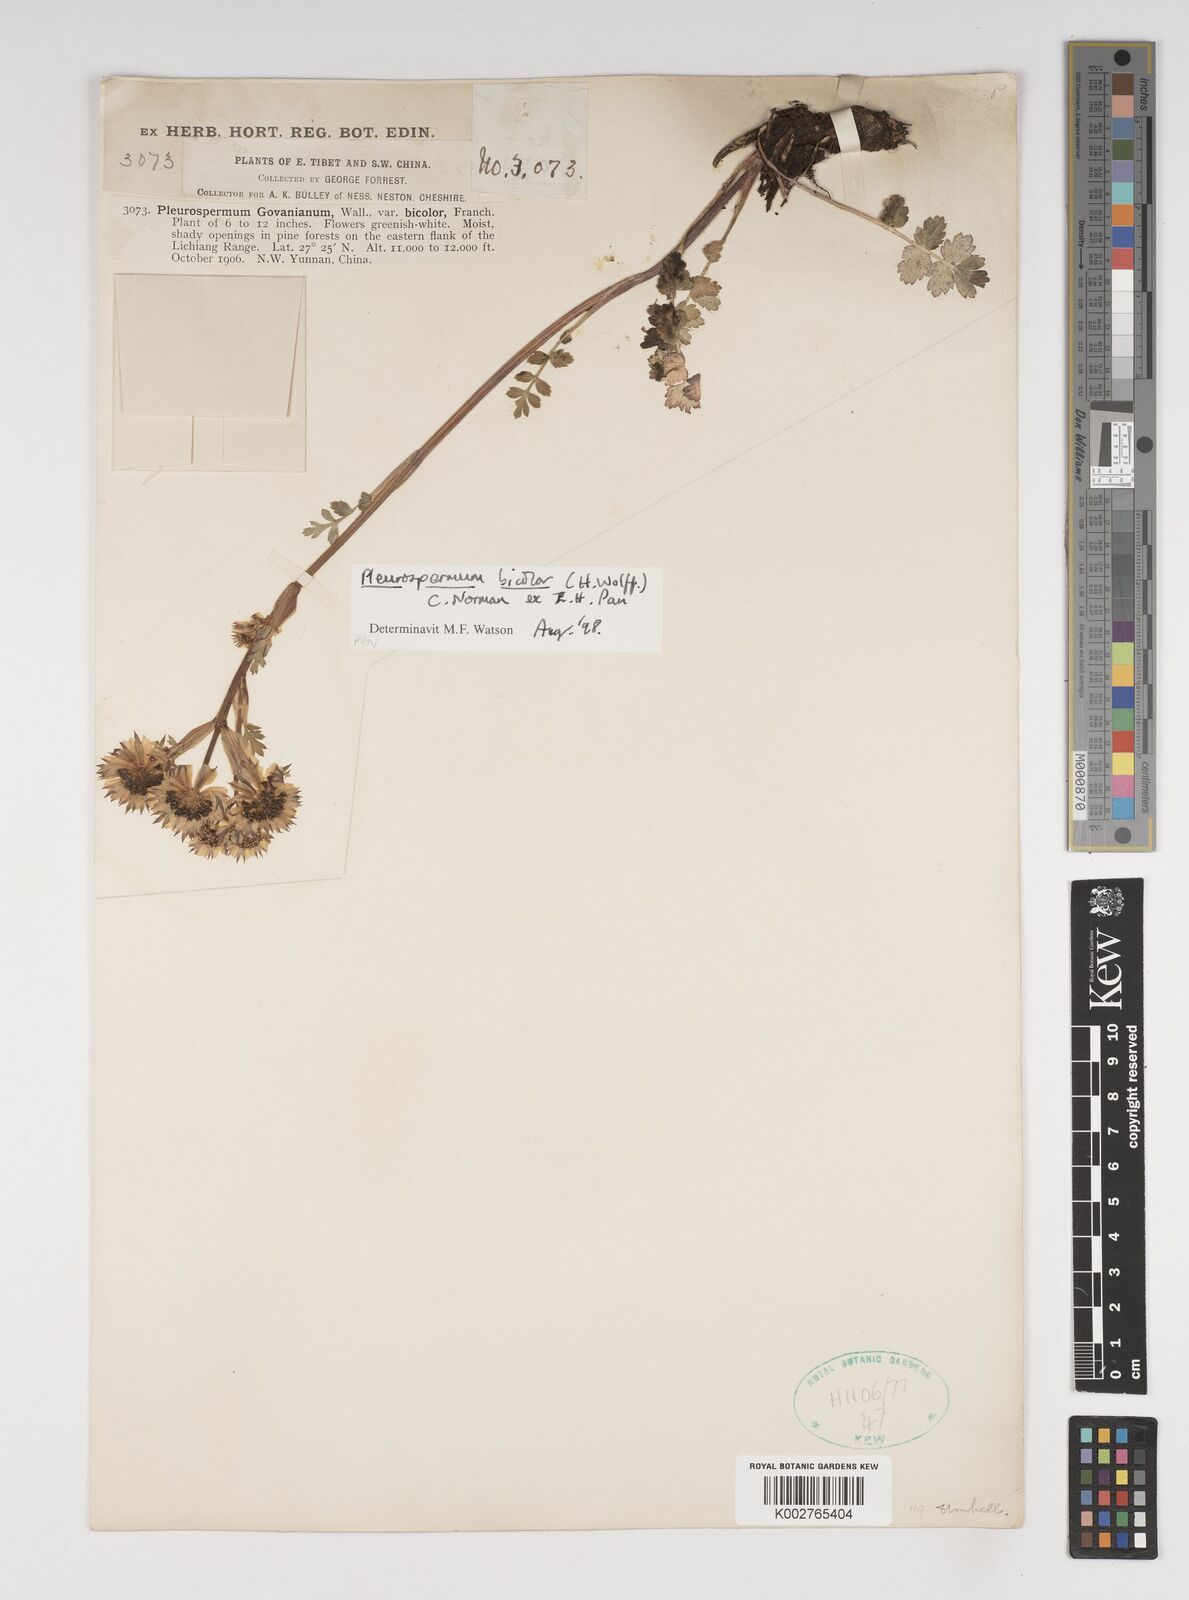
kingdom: Plantae
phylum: Tracheophyta
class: Magnoliopsida
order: Apiales
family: Apiaceae
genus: Pleurospermopsis
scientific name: Pleurospermopsis bicolor
